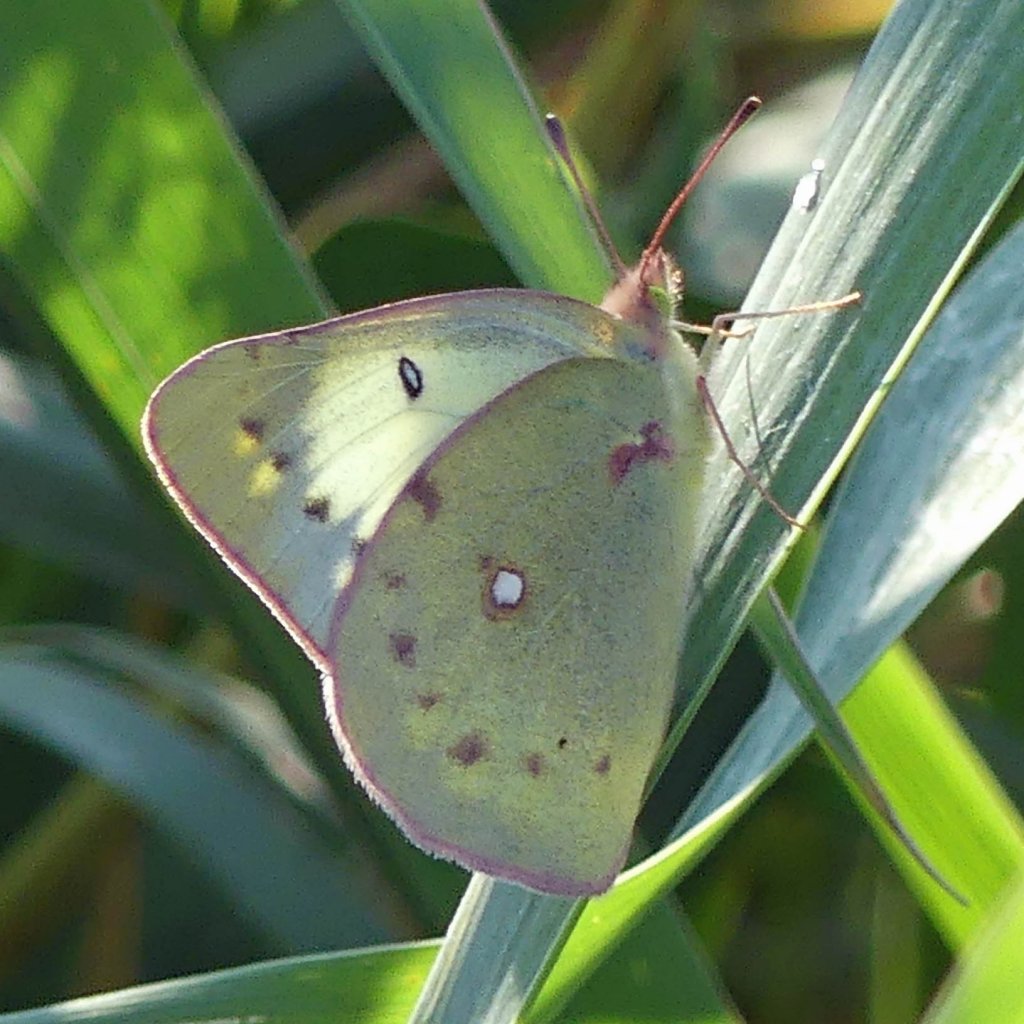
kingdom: Animalia
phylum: Arthropoda
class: Insecta
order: Lepidoptera
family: Pieridae
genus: Colias
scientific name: Colias philodice
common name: Clouded Sulphur
